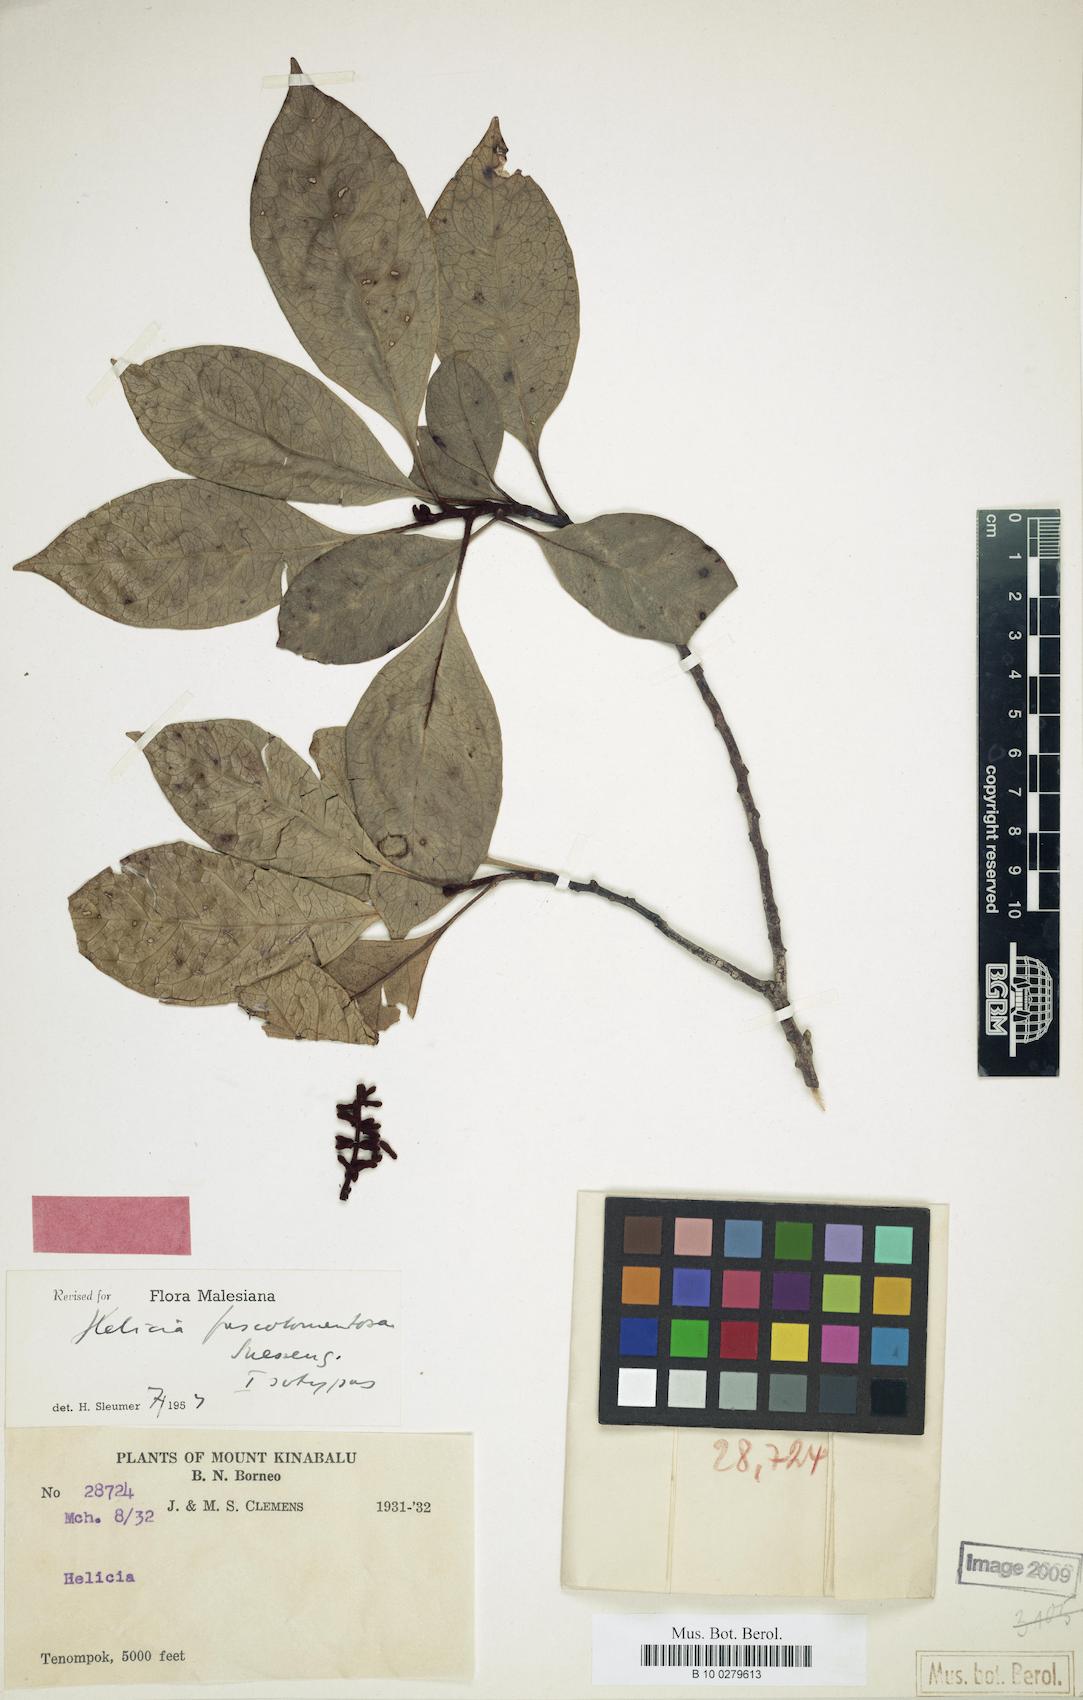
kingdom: Plantae
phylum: Tracheophyta
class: Magnoliopsida
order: Proteales
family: Proteaceae
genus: Helicia
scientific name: Helicia fuscotomentosa
